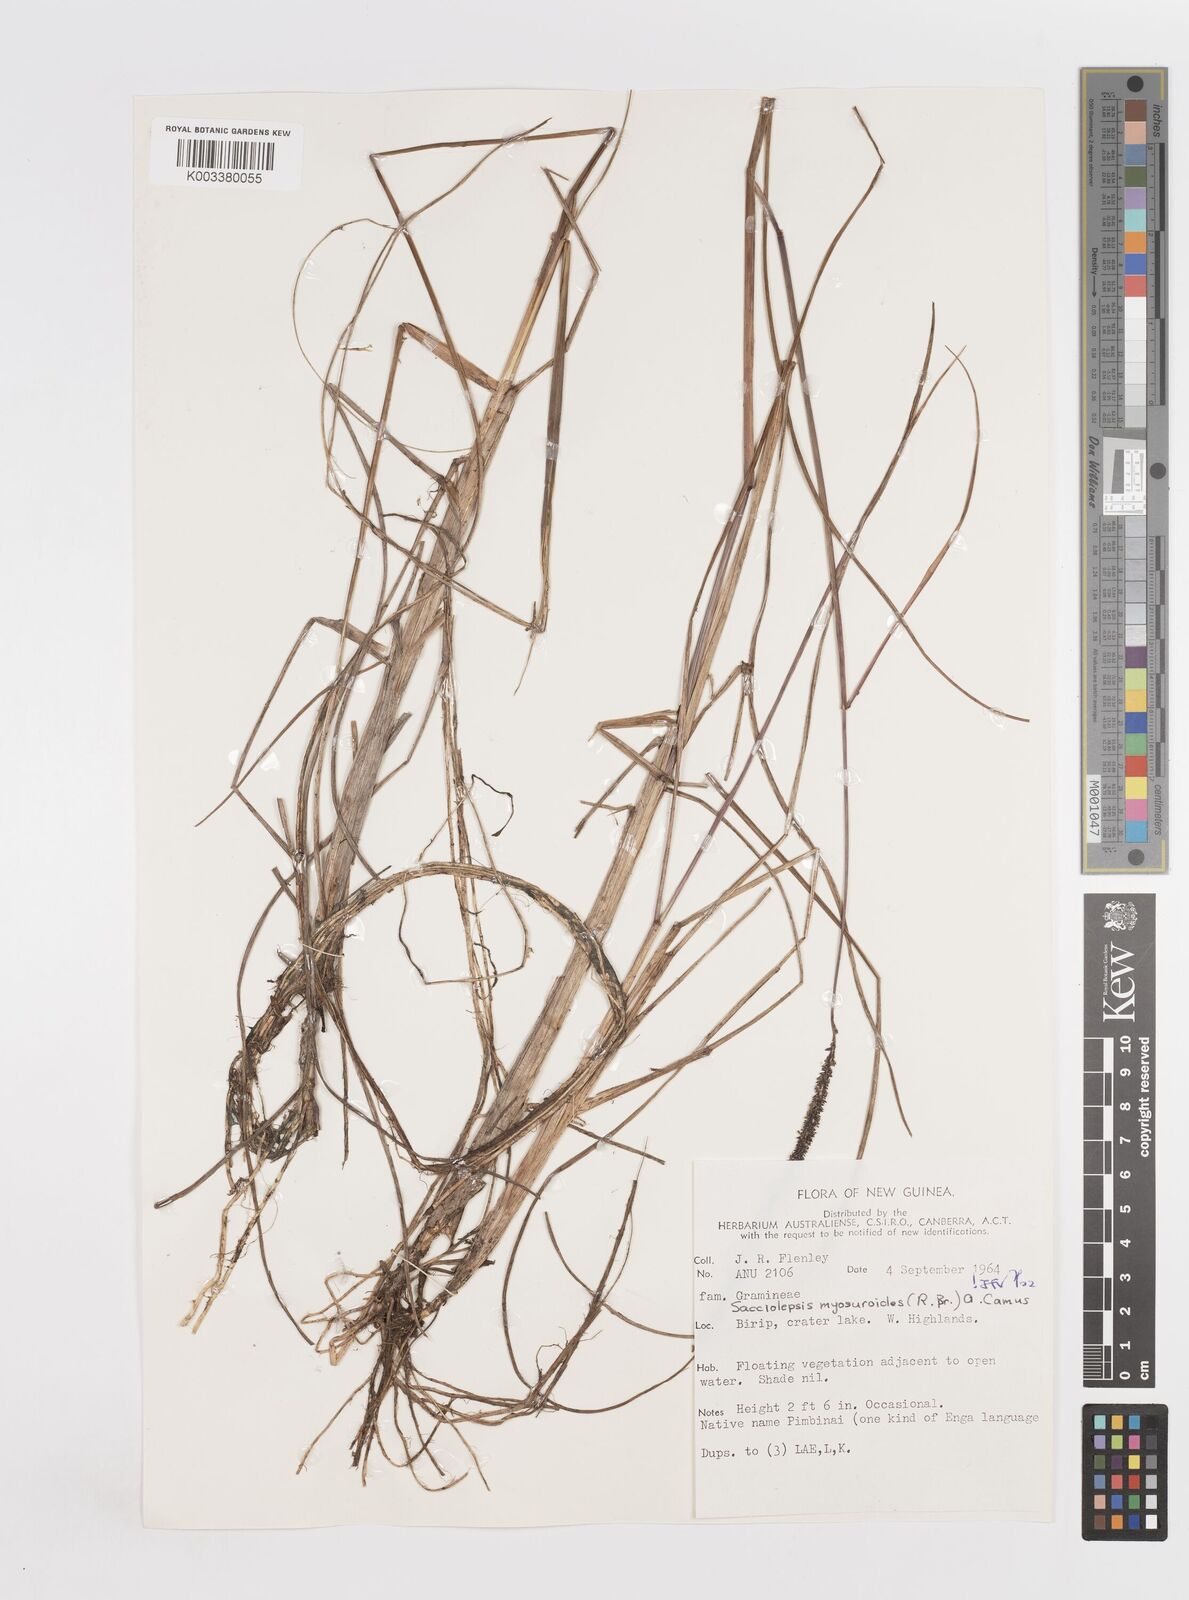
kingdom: Plantae
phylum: Tracheophyta
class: Liliopsida
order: Poales
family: Poaceae
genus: Sacciolepis
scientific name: Sacciolepis myosuroides
